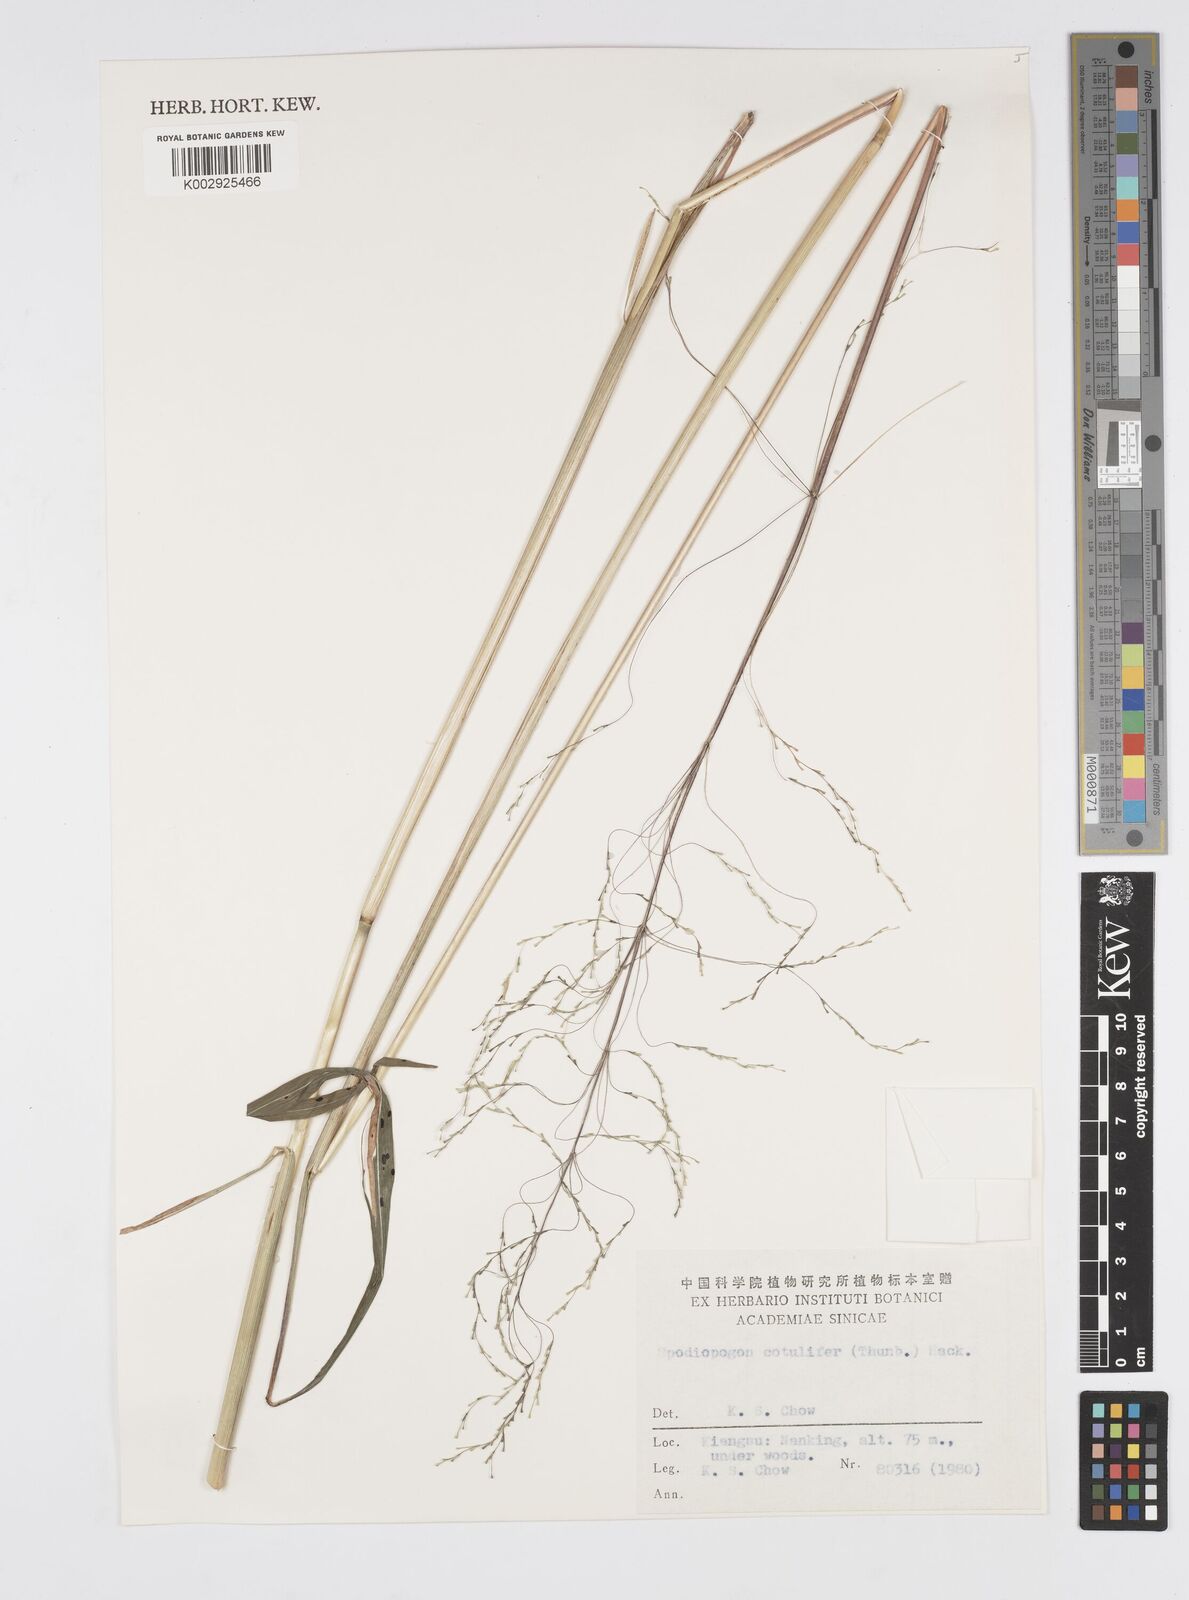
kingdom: Plantae
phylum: Tracheophyta
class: Liliopsida
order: Poales
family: Poaceae
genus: Spodiopogon
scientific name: Spodiopogon cotulifer
